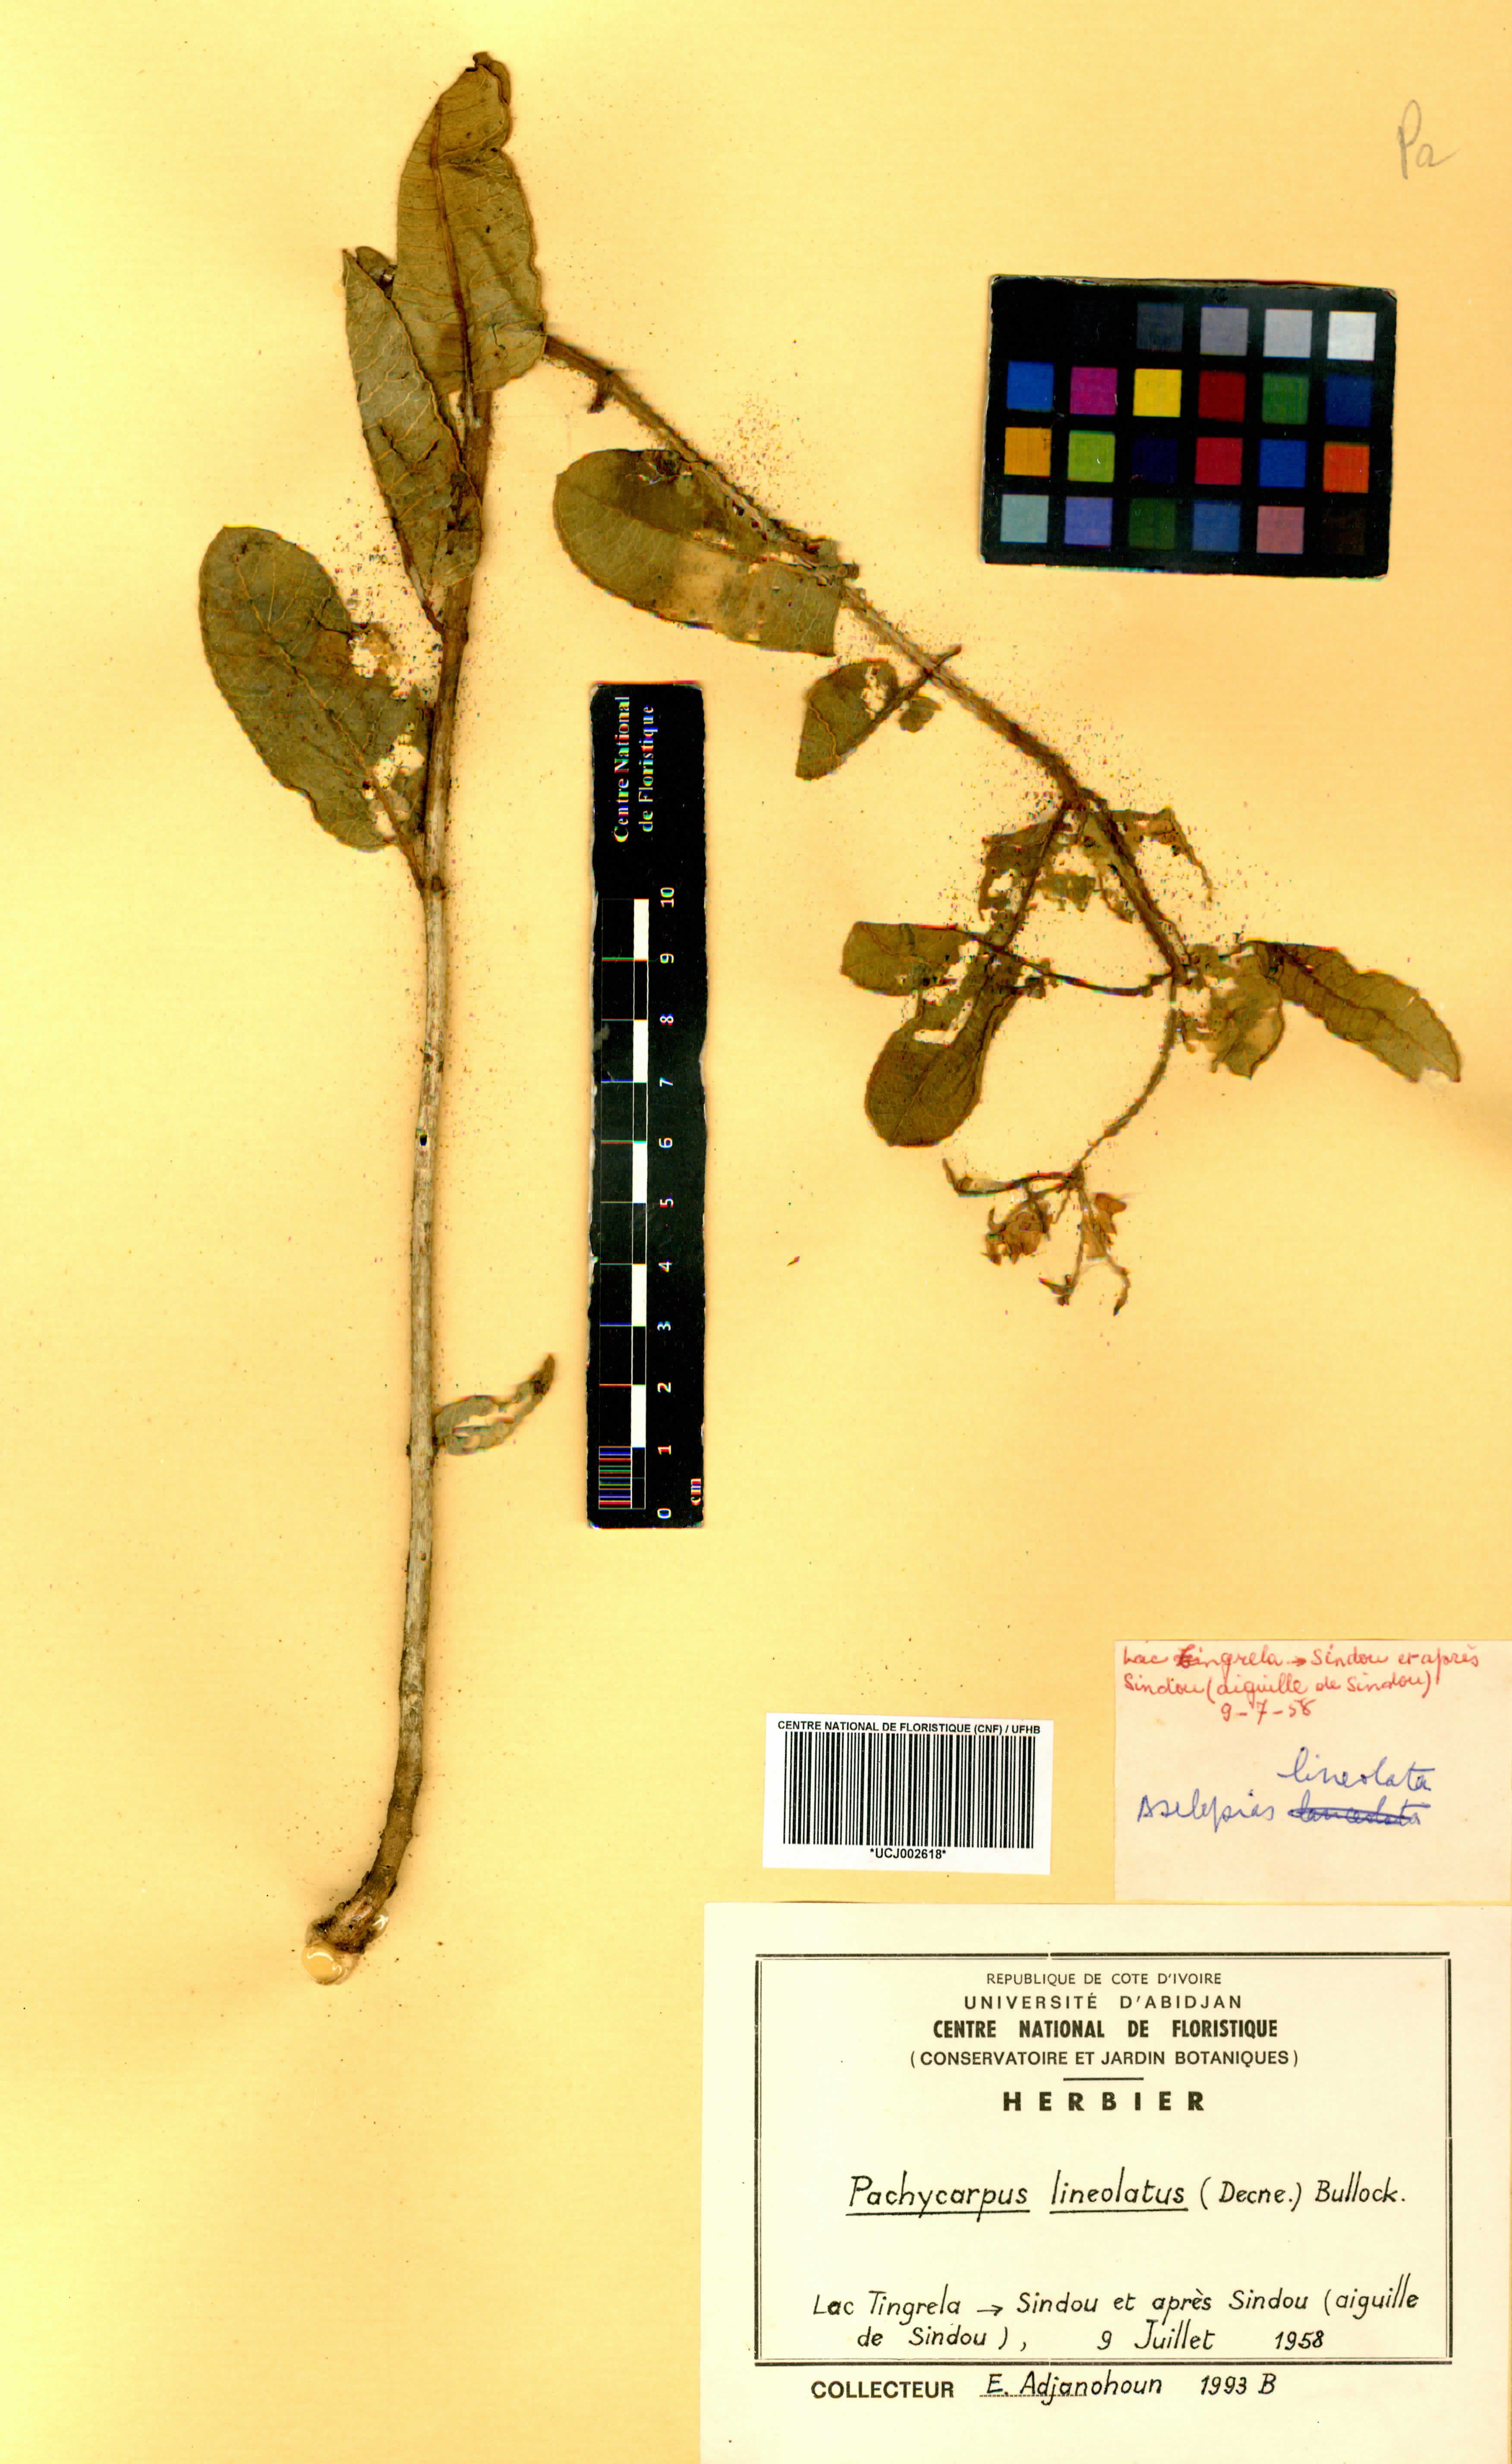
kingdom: Plantae
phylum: Tracheophyta
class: Magnoliopsida
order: Gentianales
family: Apocynaceae
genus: Pachycarpus
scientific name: Pachycarpus lineolatus
